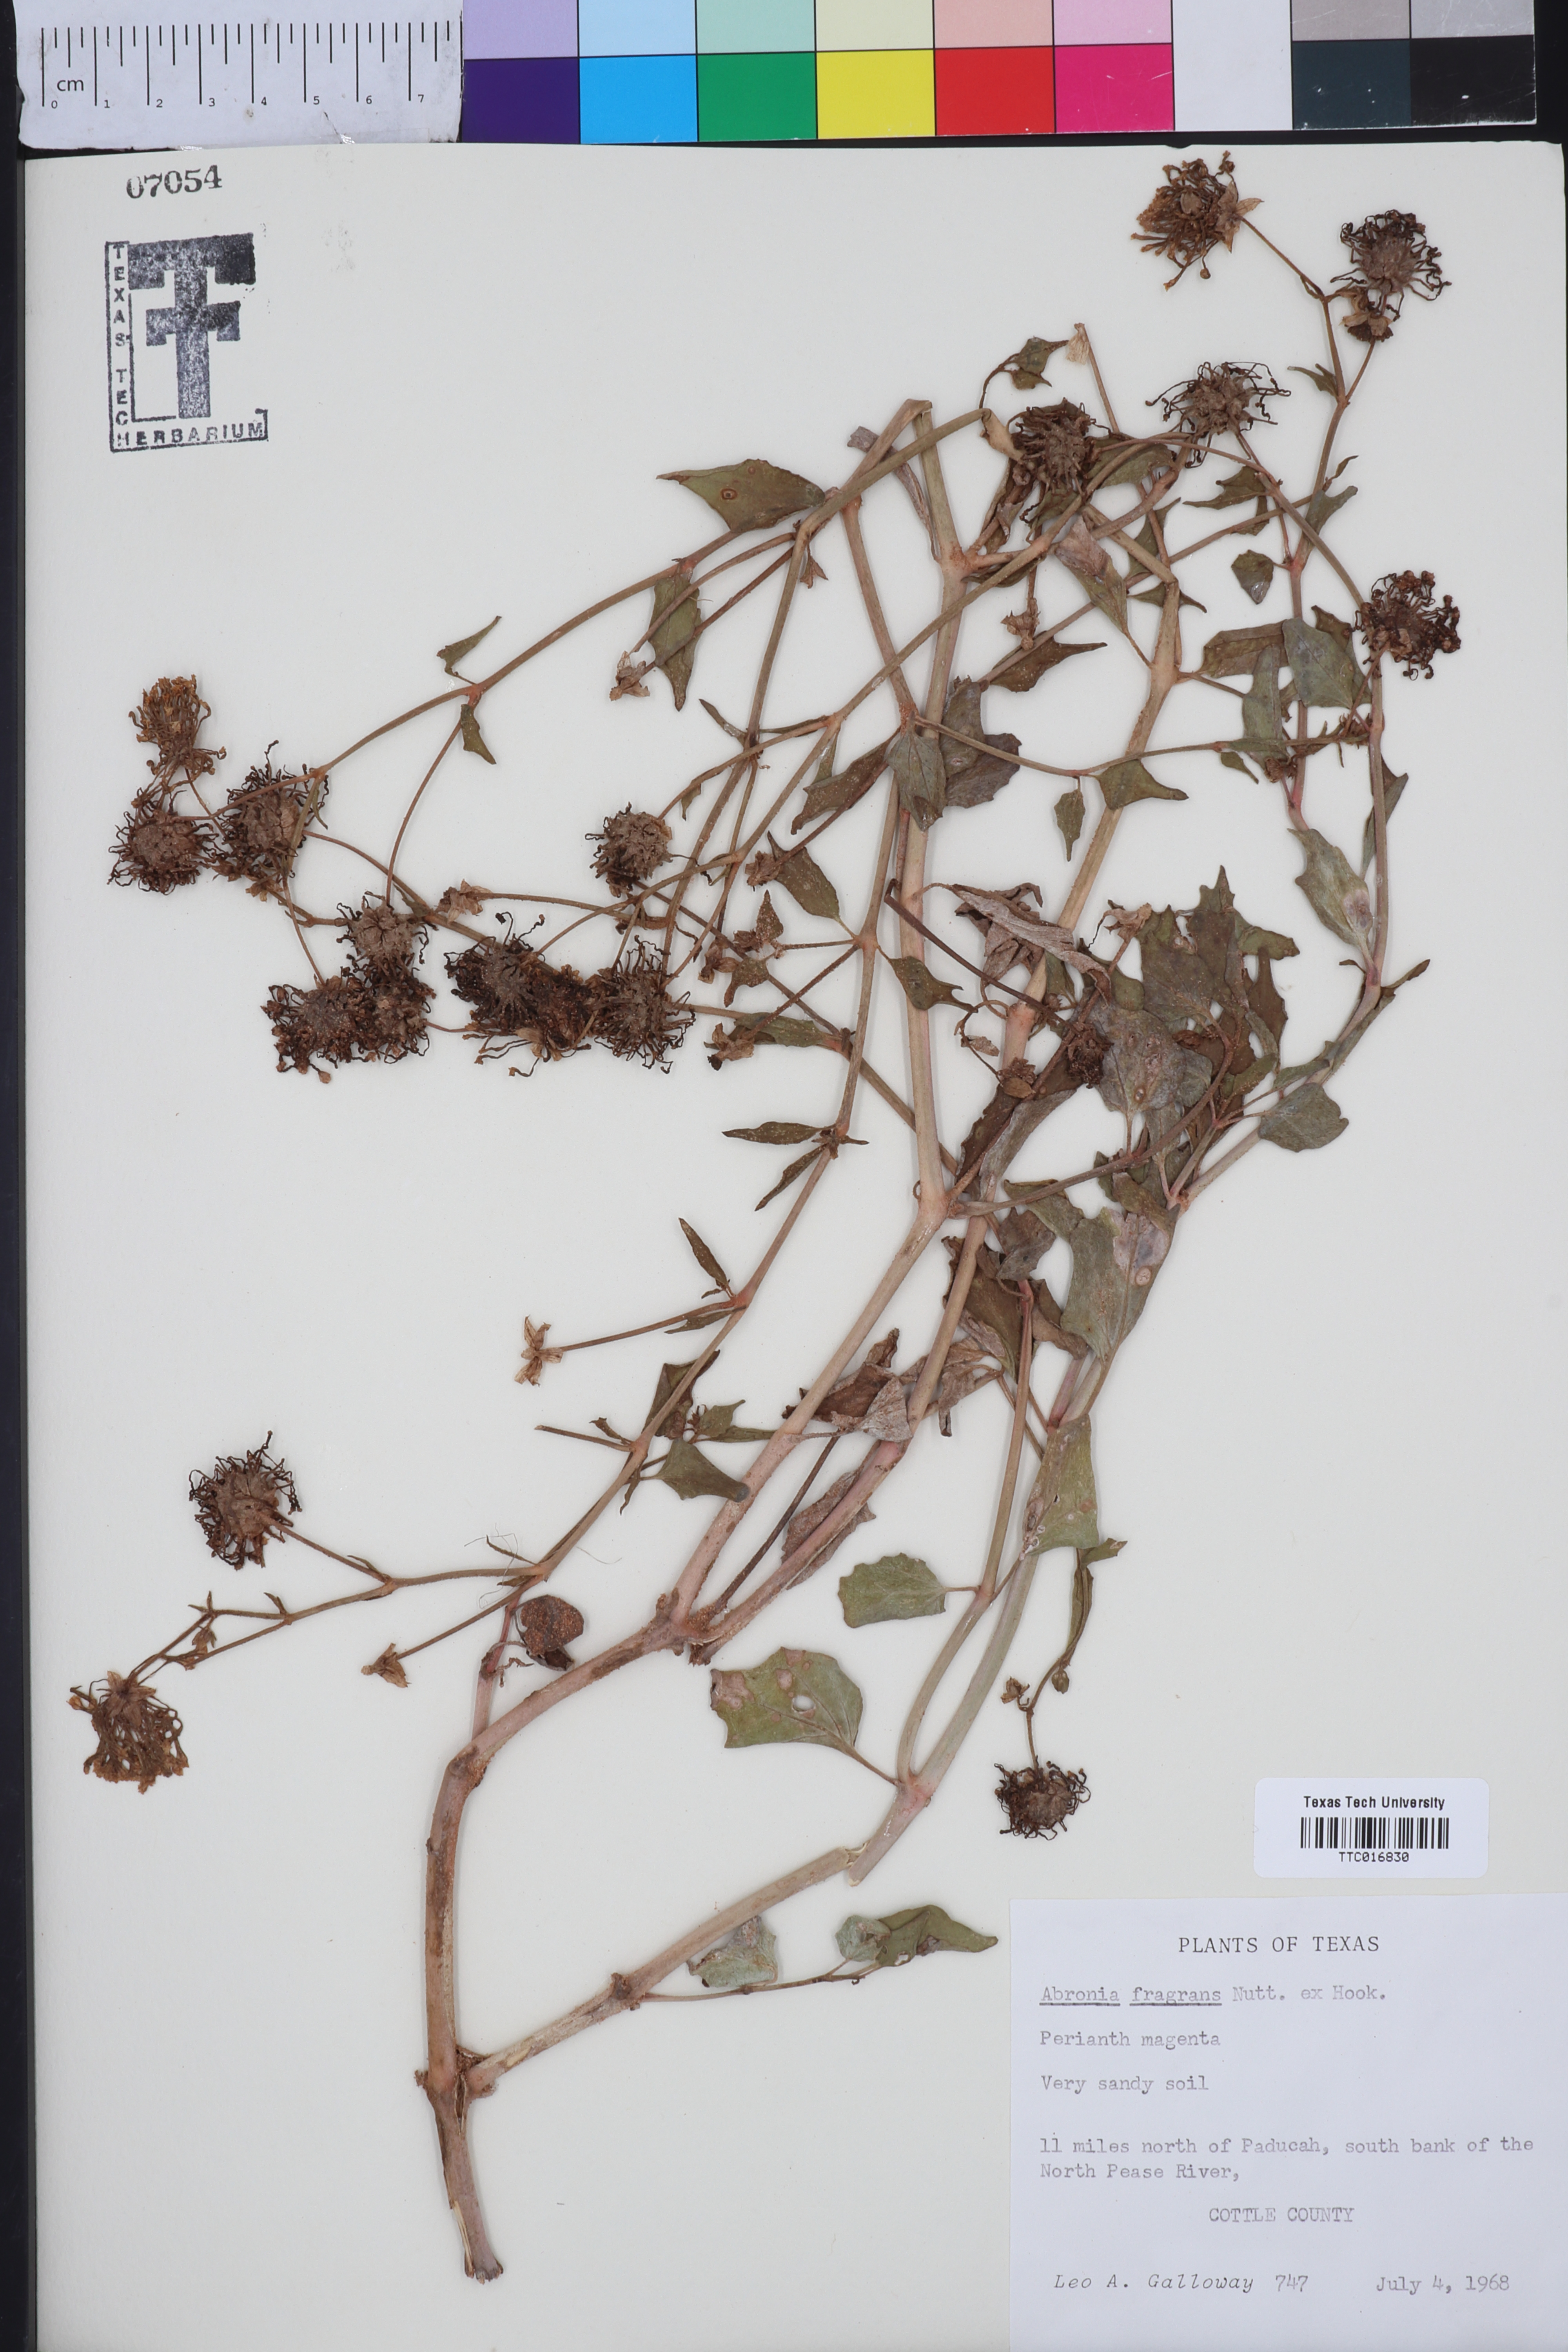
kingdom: Plantae
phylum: Tracheophyta
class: Magnoliopsida
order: Caryophyllales
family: Nyctaginaceae
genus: Abronia
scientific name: Abronia fragrans
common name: Fragrant sand-verbena
